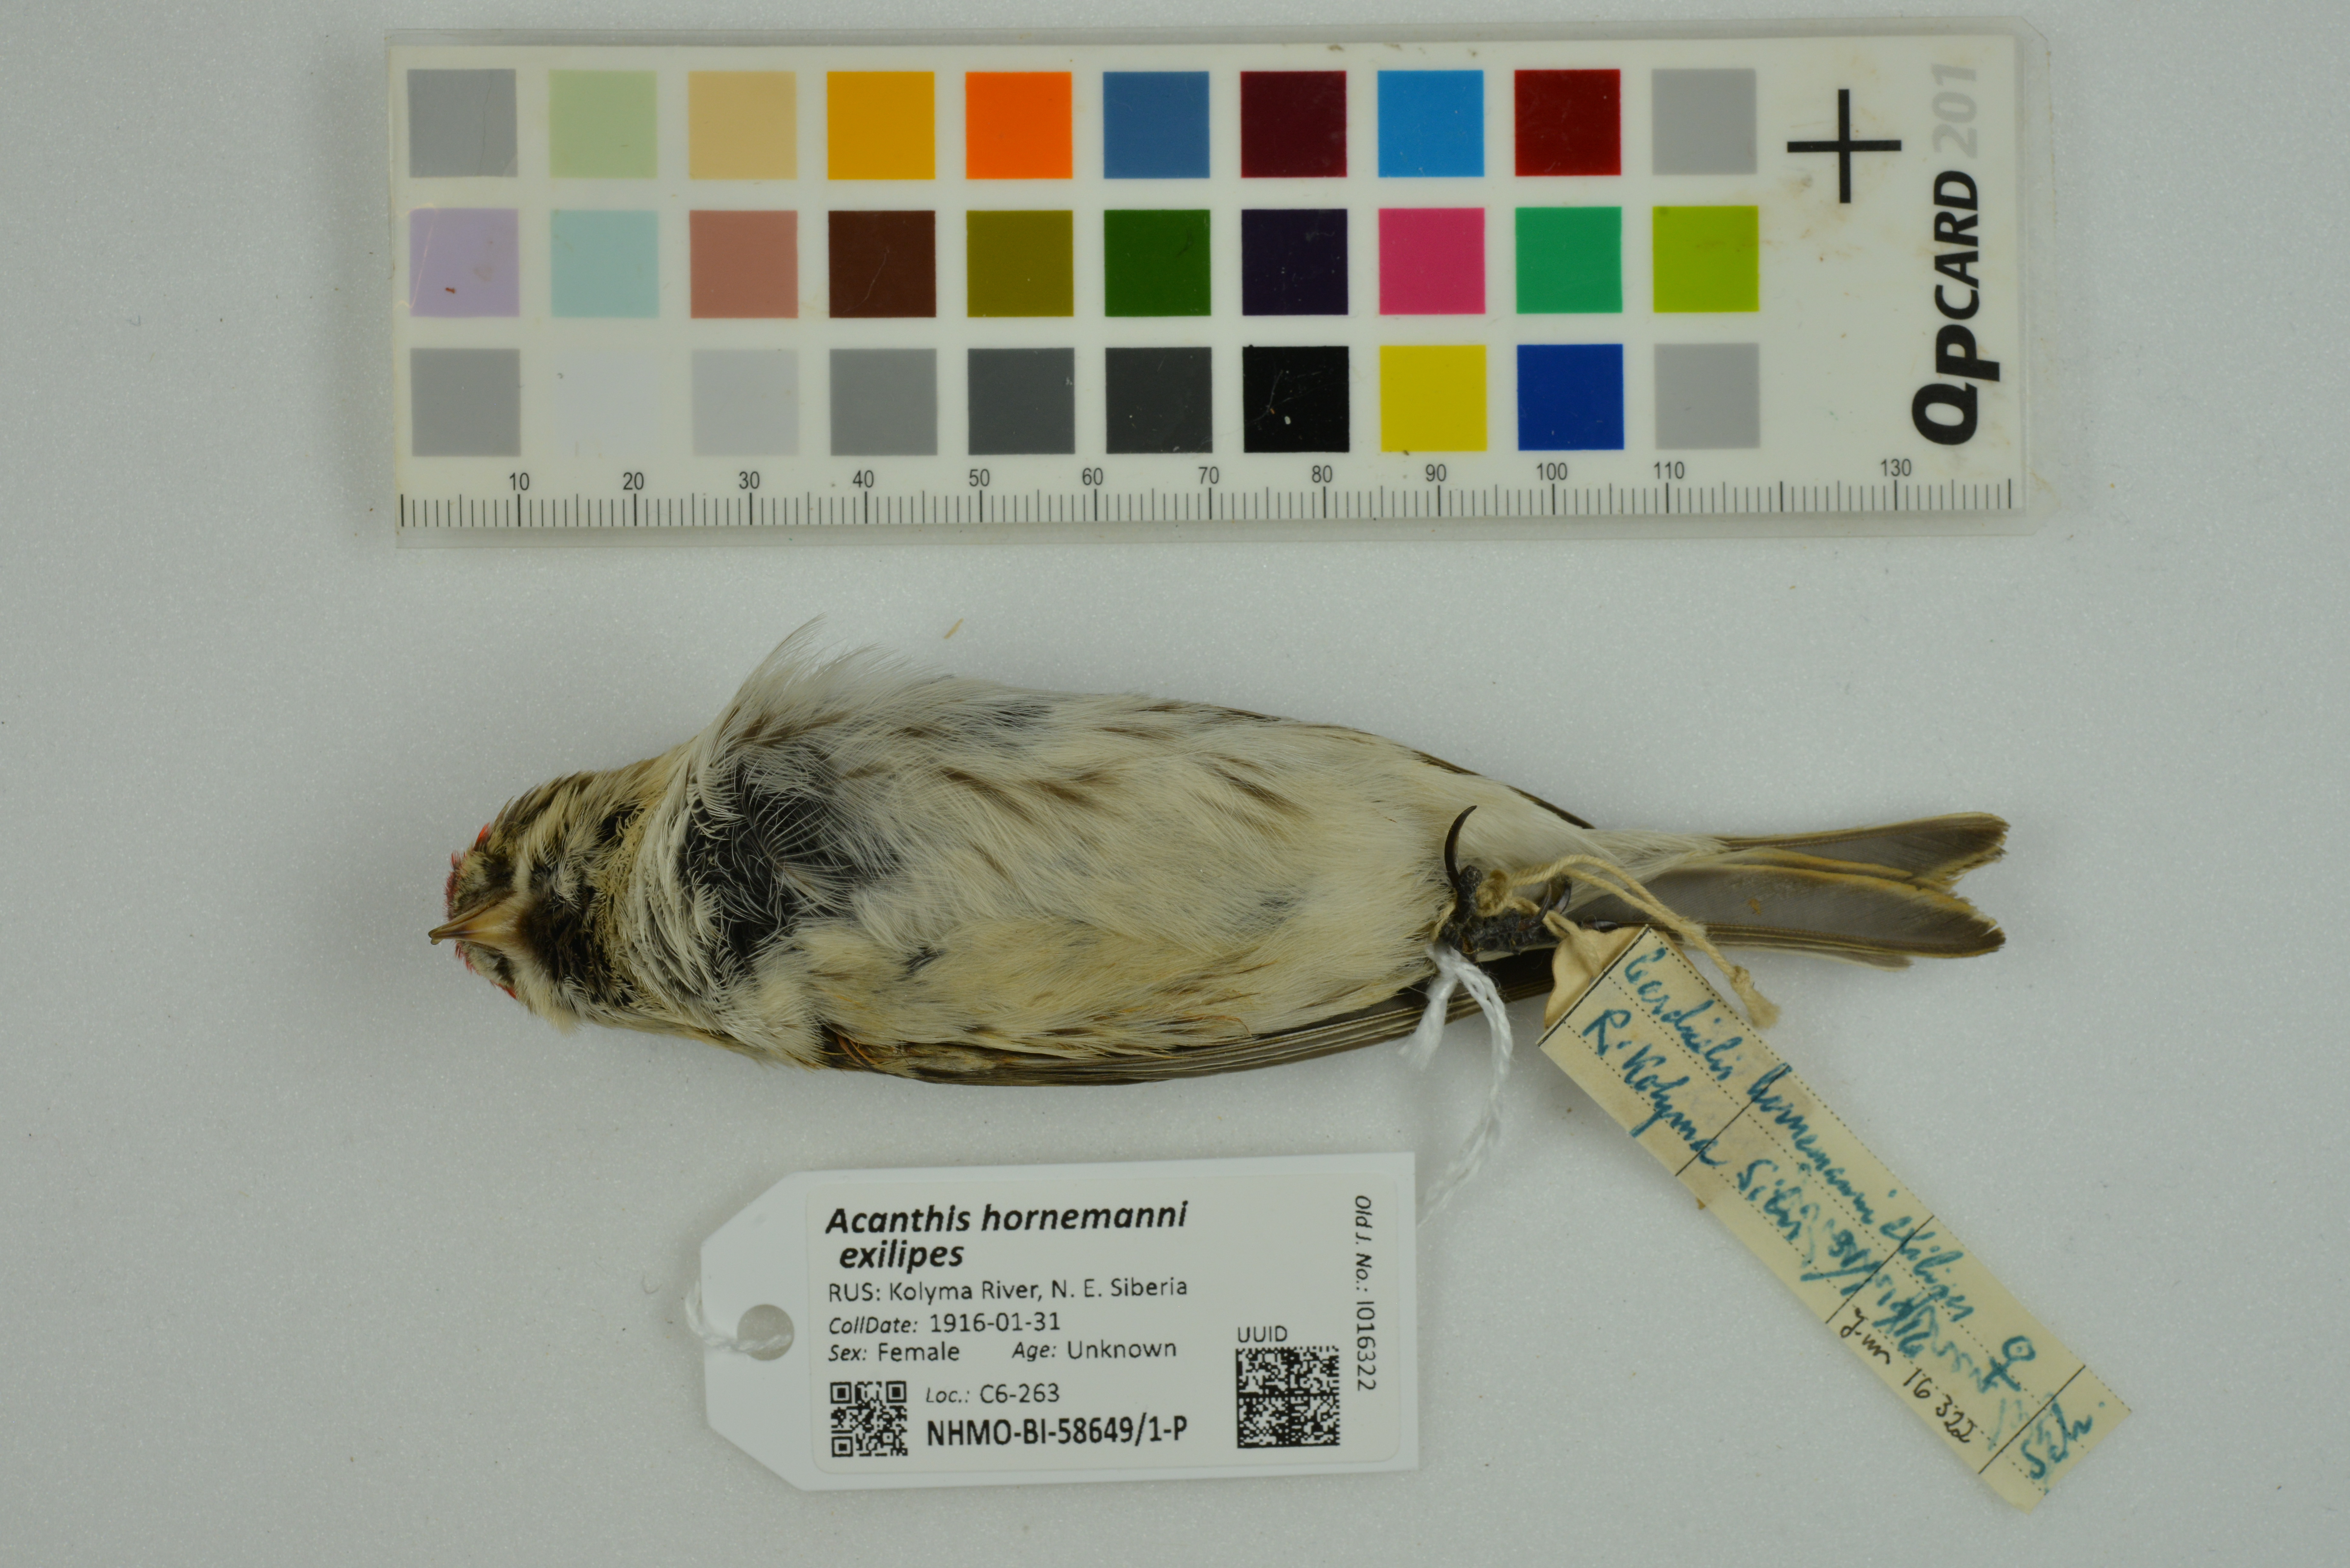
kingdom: Animalia
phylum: Chordata
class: Aves
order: Passeriformes
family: Fringillidae
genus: Acanthis
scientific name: Acanthis hornemanni
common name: Arctic redpoll
